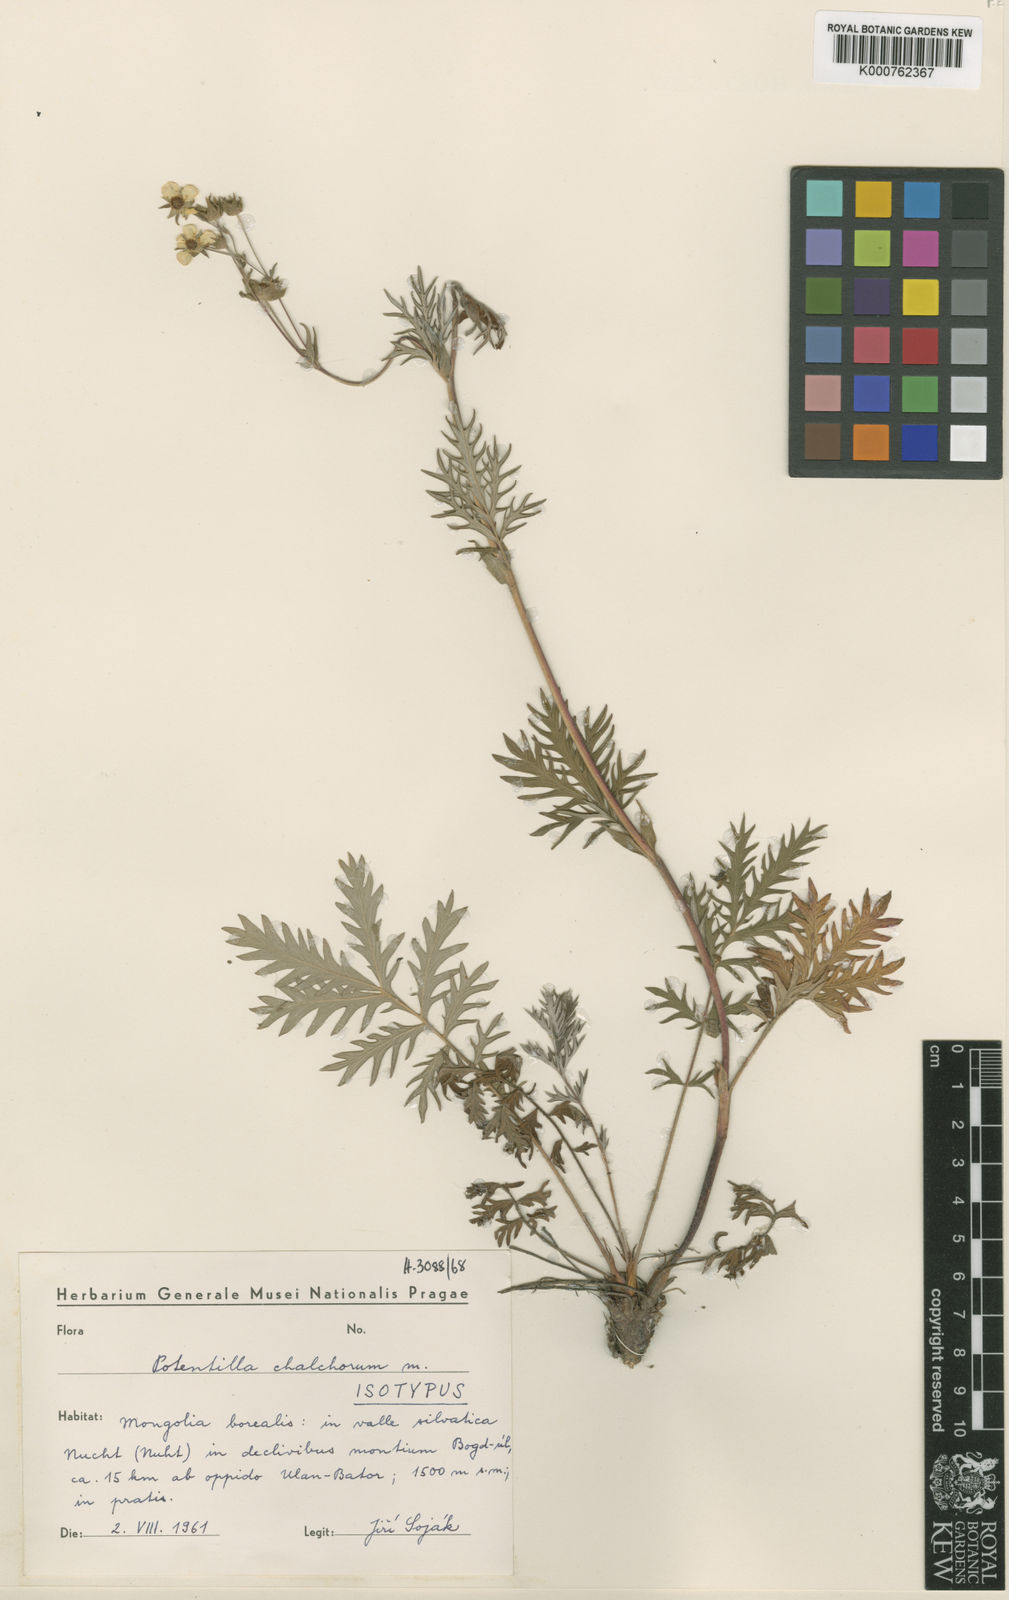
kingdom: Plantae
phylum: Tracheophyta
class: Magnoliopsida
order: Rosales
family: Rosaceae
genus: Potentilla
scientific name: Potentilla
